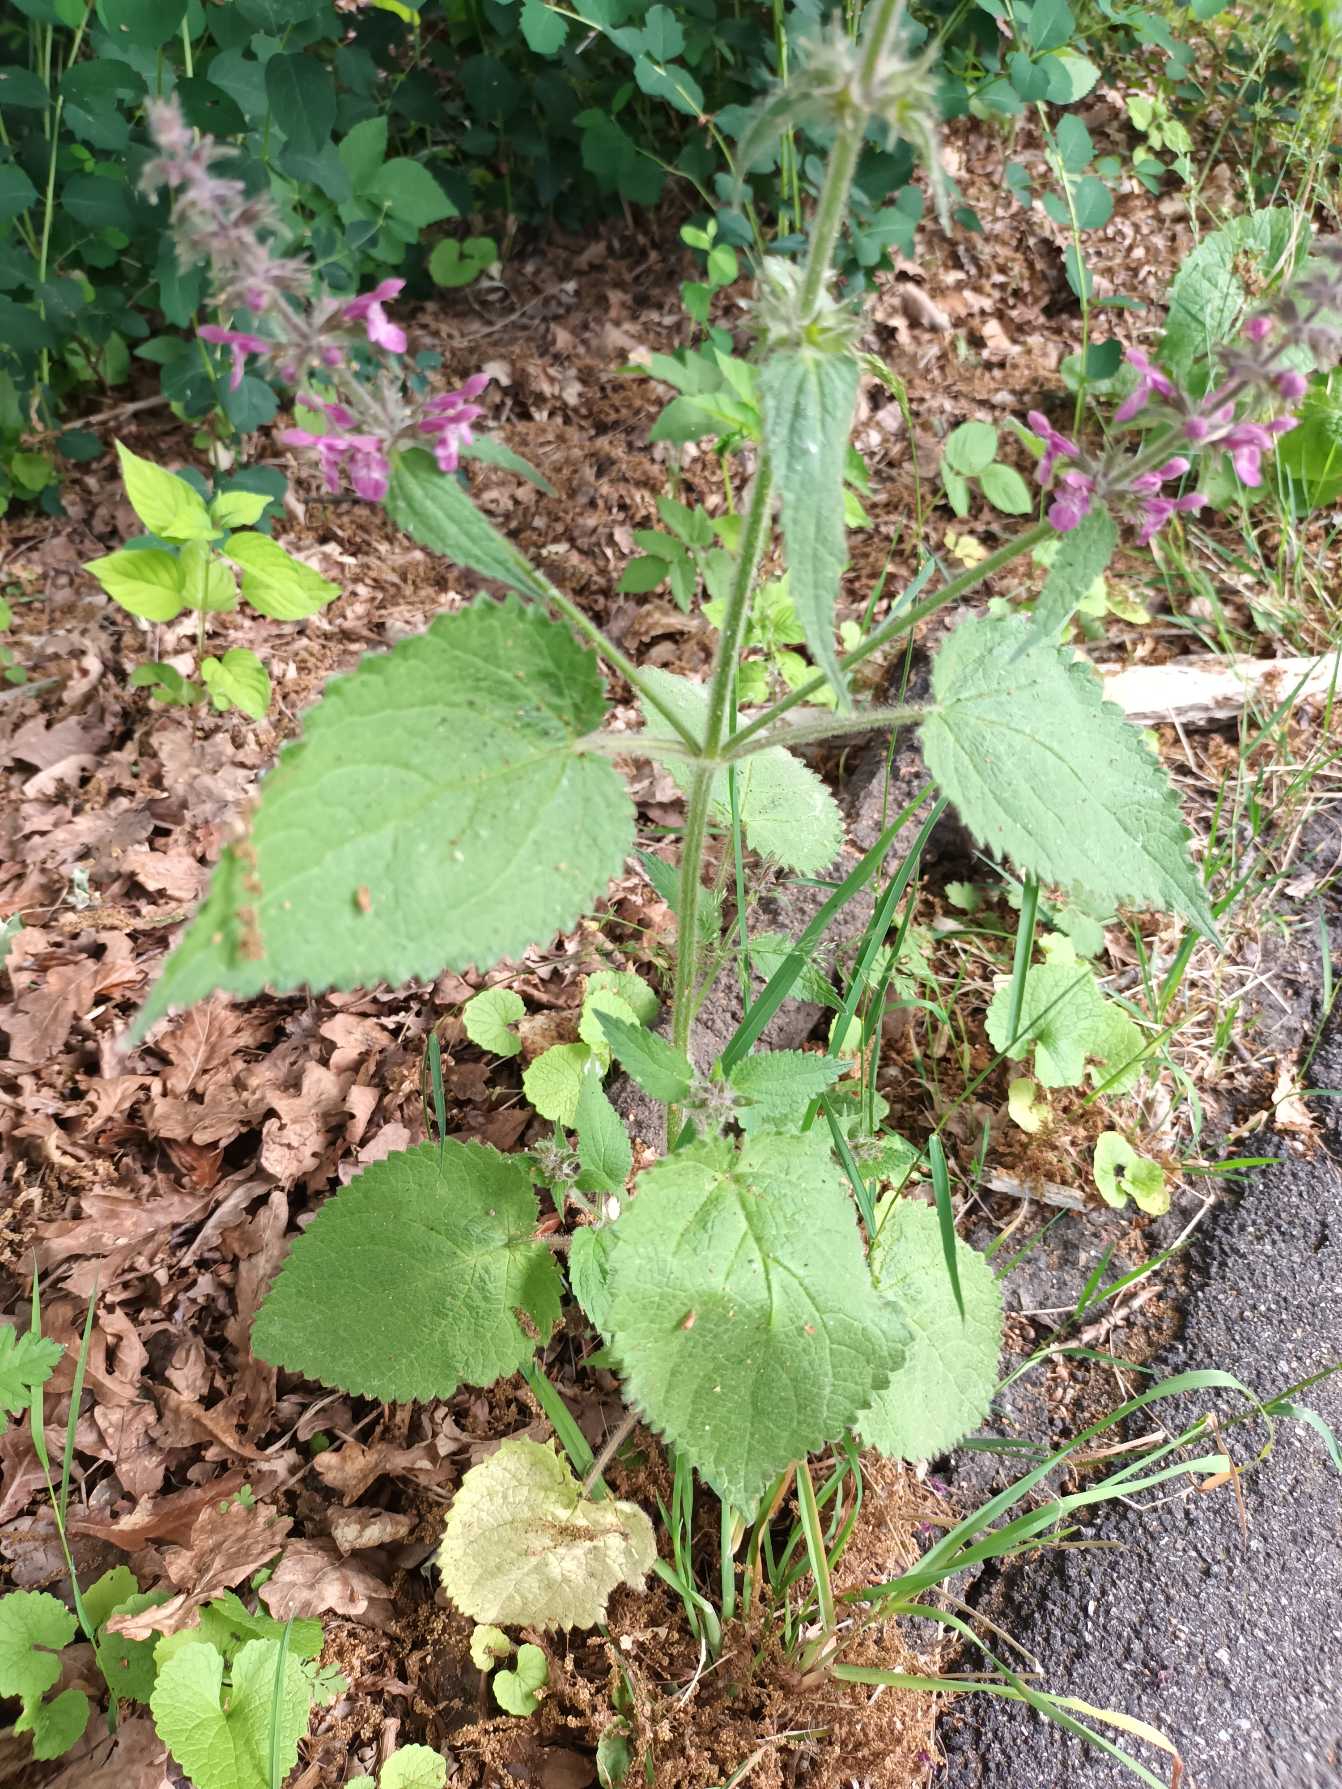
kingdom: Plantae
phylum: Tracheophyta
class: Magnoliopsida
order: Lamiales
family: Lamiaceae
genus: Stachys
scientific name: Stachys sylvatica
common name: Skov-galtetand
